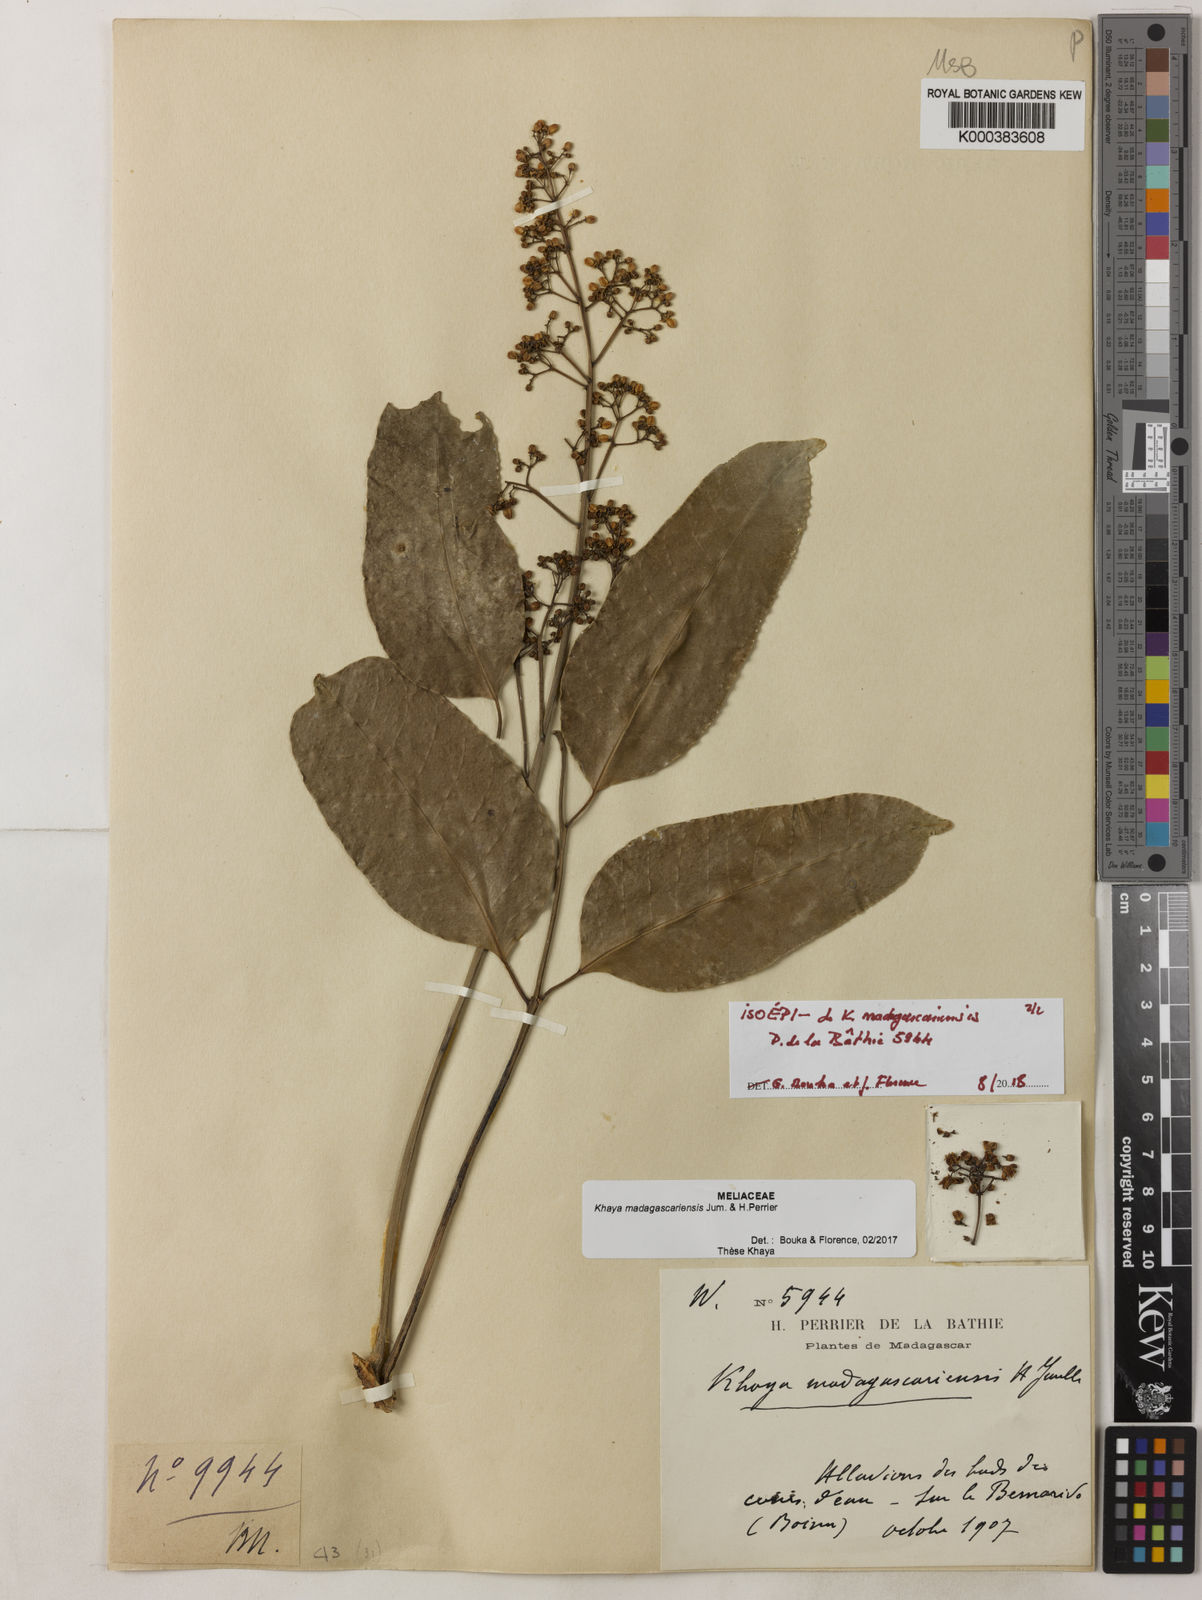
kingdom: Plantae
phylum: Tracheophyta
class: Magnoliopsida
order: Sapindales
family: Meliaceae
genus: Khaya
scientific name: Khaya madagascariensis
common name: Madagascar-mahogany
